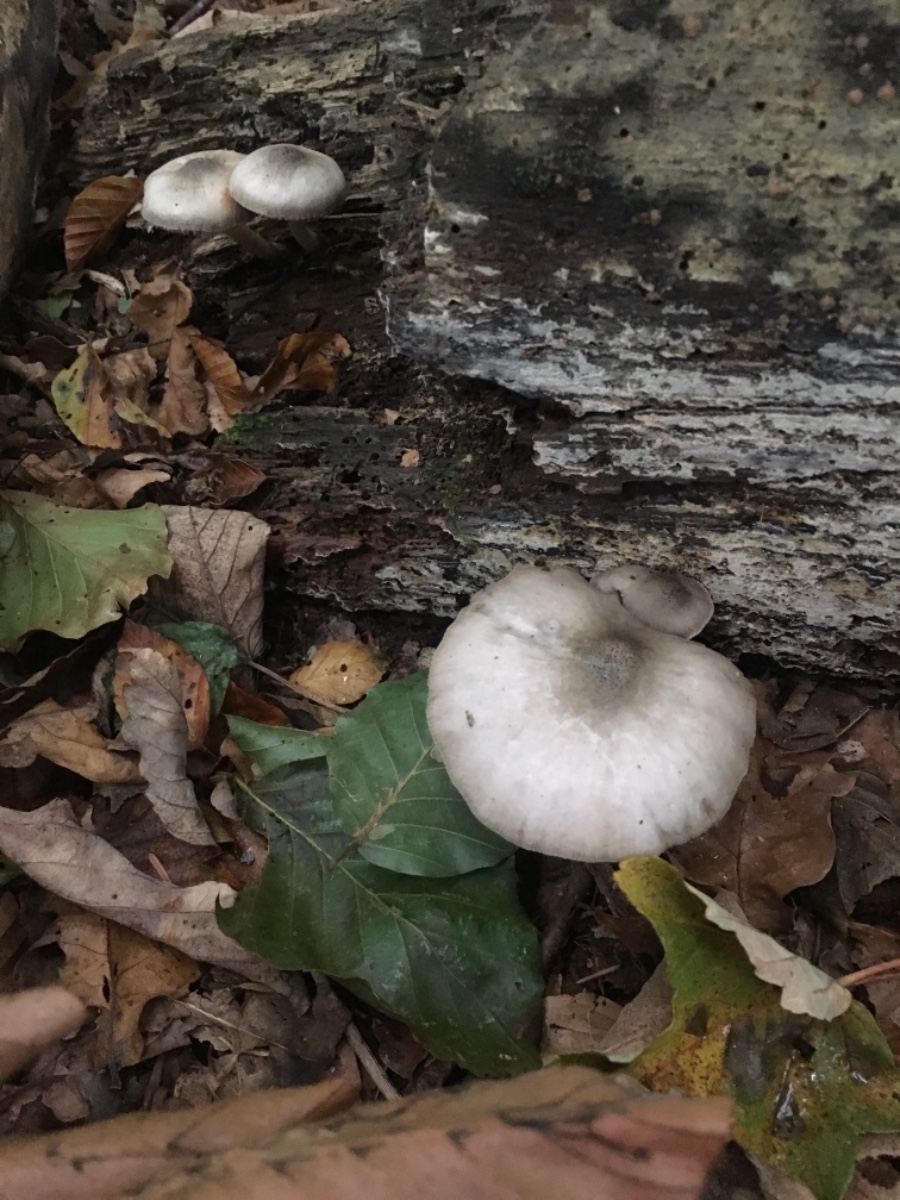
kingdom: Fungi
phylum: Basidiomycota
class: Agaricomycetes
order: Agaricales
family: Pluteaceae
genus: Pluteus
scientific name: Pluteus salicinus
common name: stiv skærmhat
